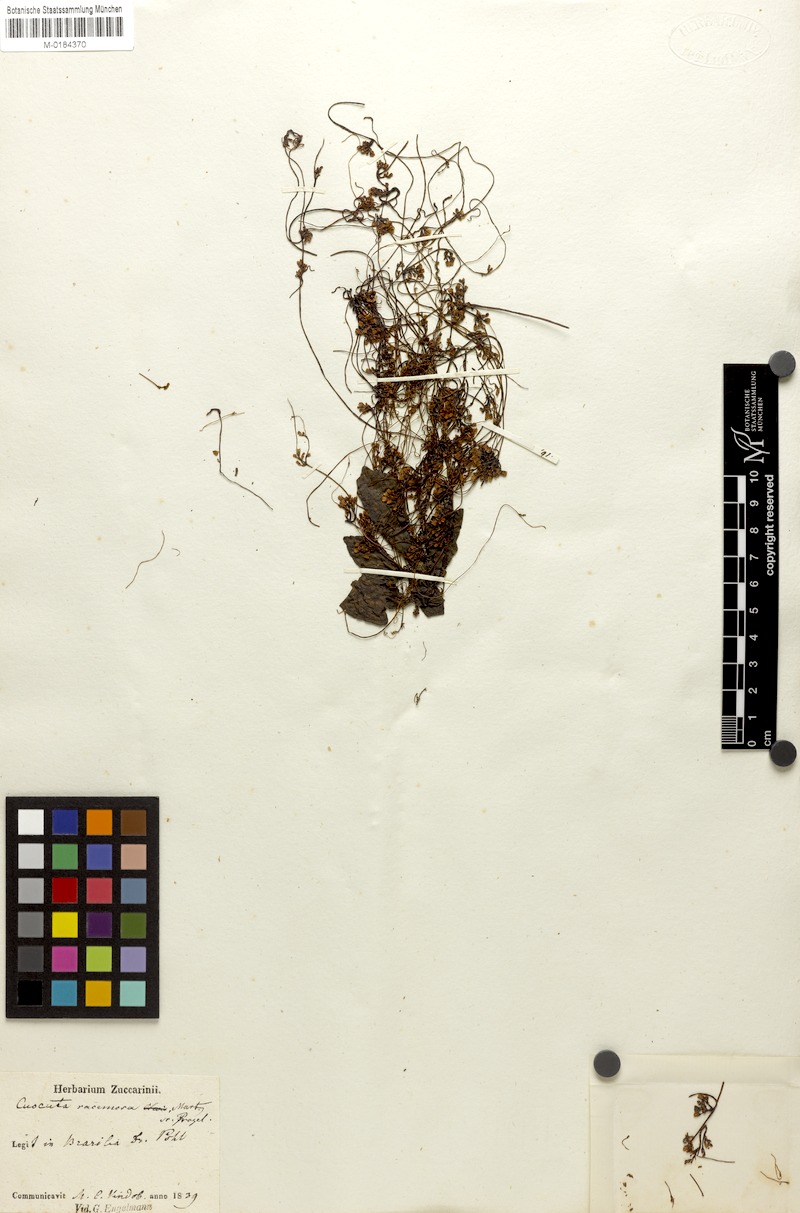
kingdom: Plantae
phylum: Tracheophyta
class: Magnoliopsida
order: Solanales
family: Convolvulaceae
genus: Cuscuta
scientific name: Cuscuta racemosa
